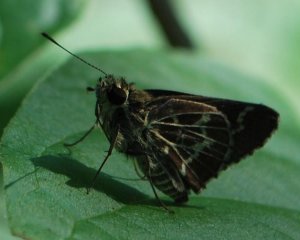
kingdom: Animalia
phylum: Arthropoda
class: Insecta
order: Lepidoptera
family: Hesperiidae
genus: Mastor
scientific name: Mastor aesculapius
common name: Lace-winged Roadside-Skipper
